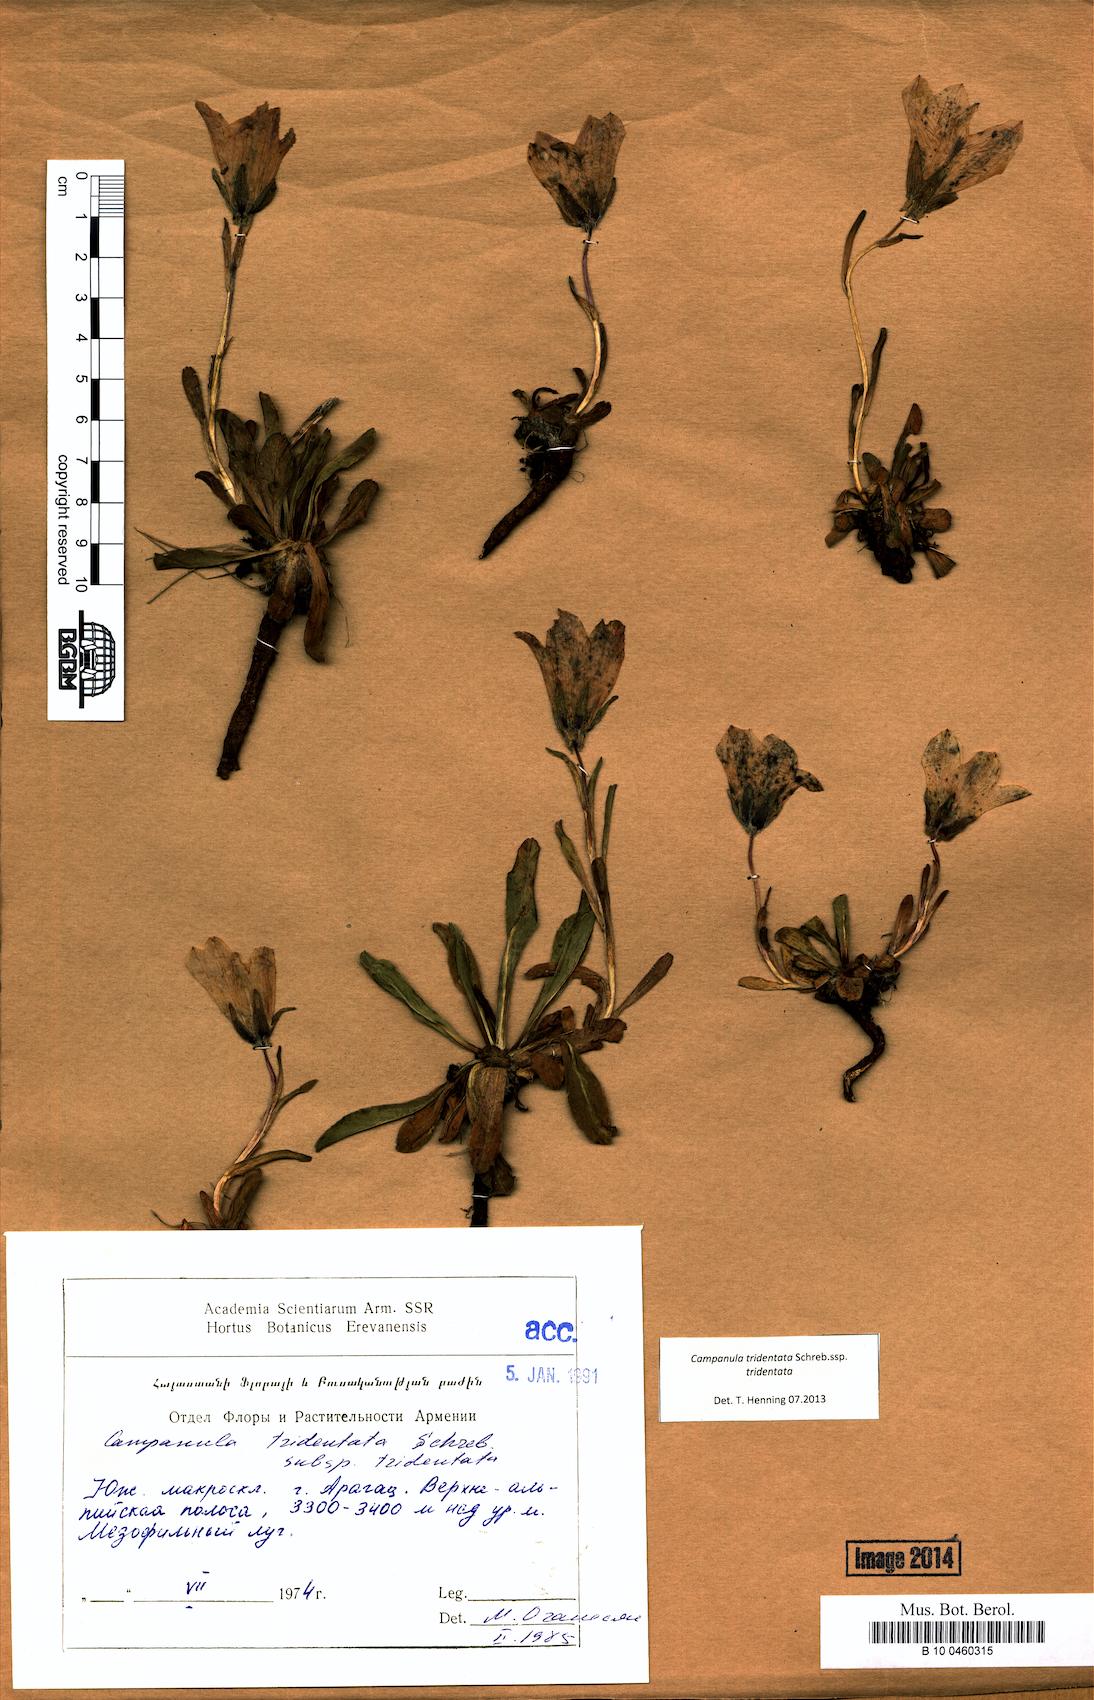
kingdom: Plantae
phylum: Tracheophyta
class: Magnoliopsida
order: Asterales
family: Campanulaceae
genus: Campanula
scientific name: Campanula tridentata
